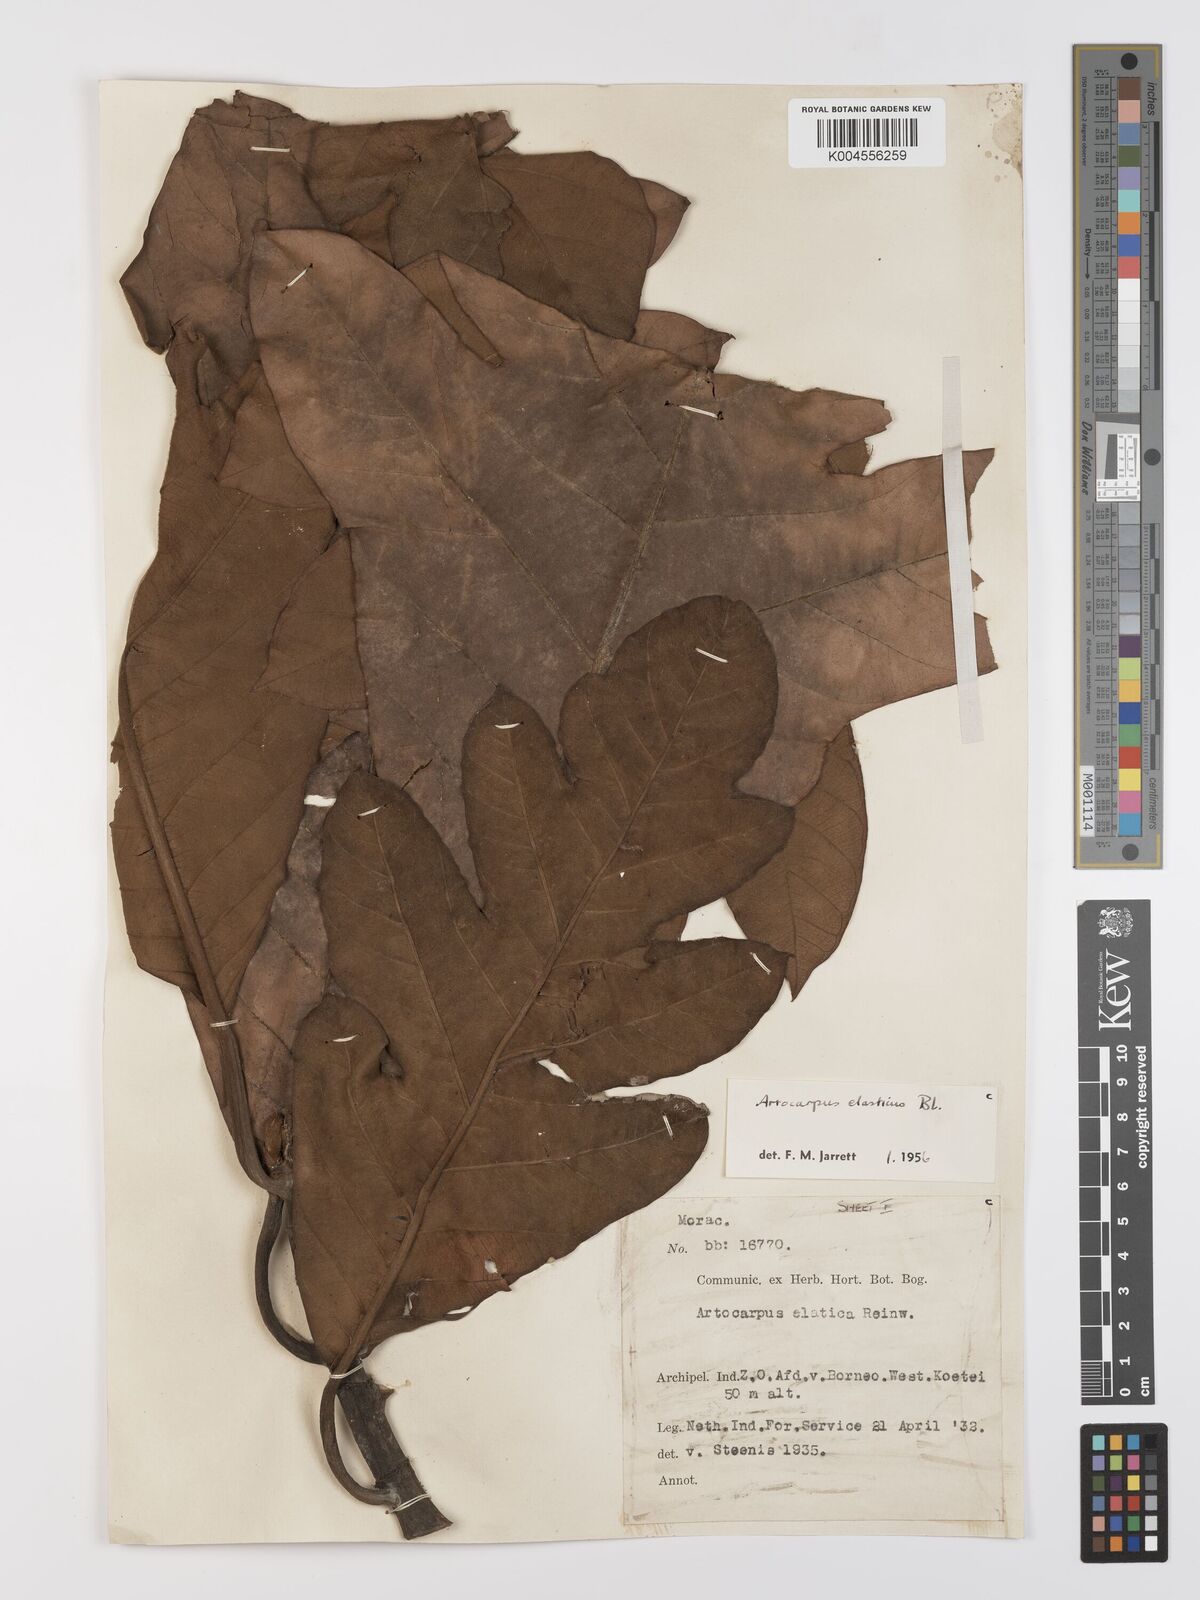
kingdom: Plantae
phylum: Tracheophyta
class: Magnoliopsida
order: Rosales
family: Moraceae
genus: Artocarpus
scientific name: Artocarpus elasticus
